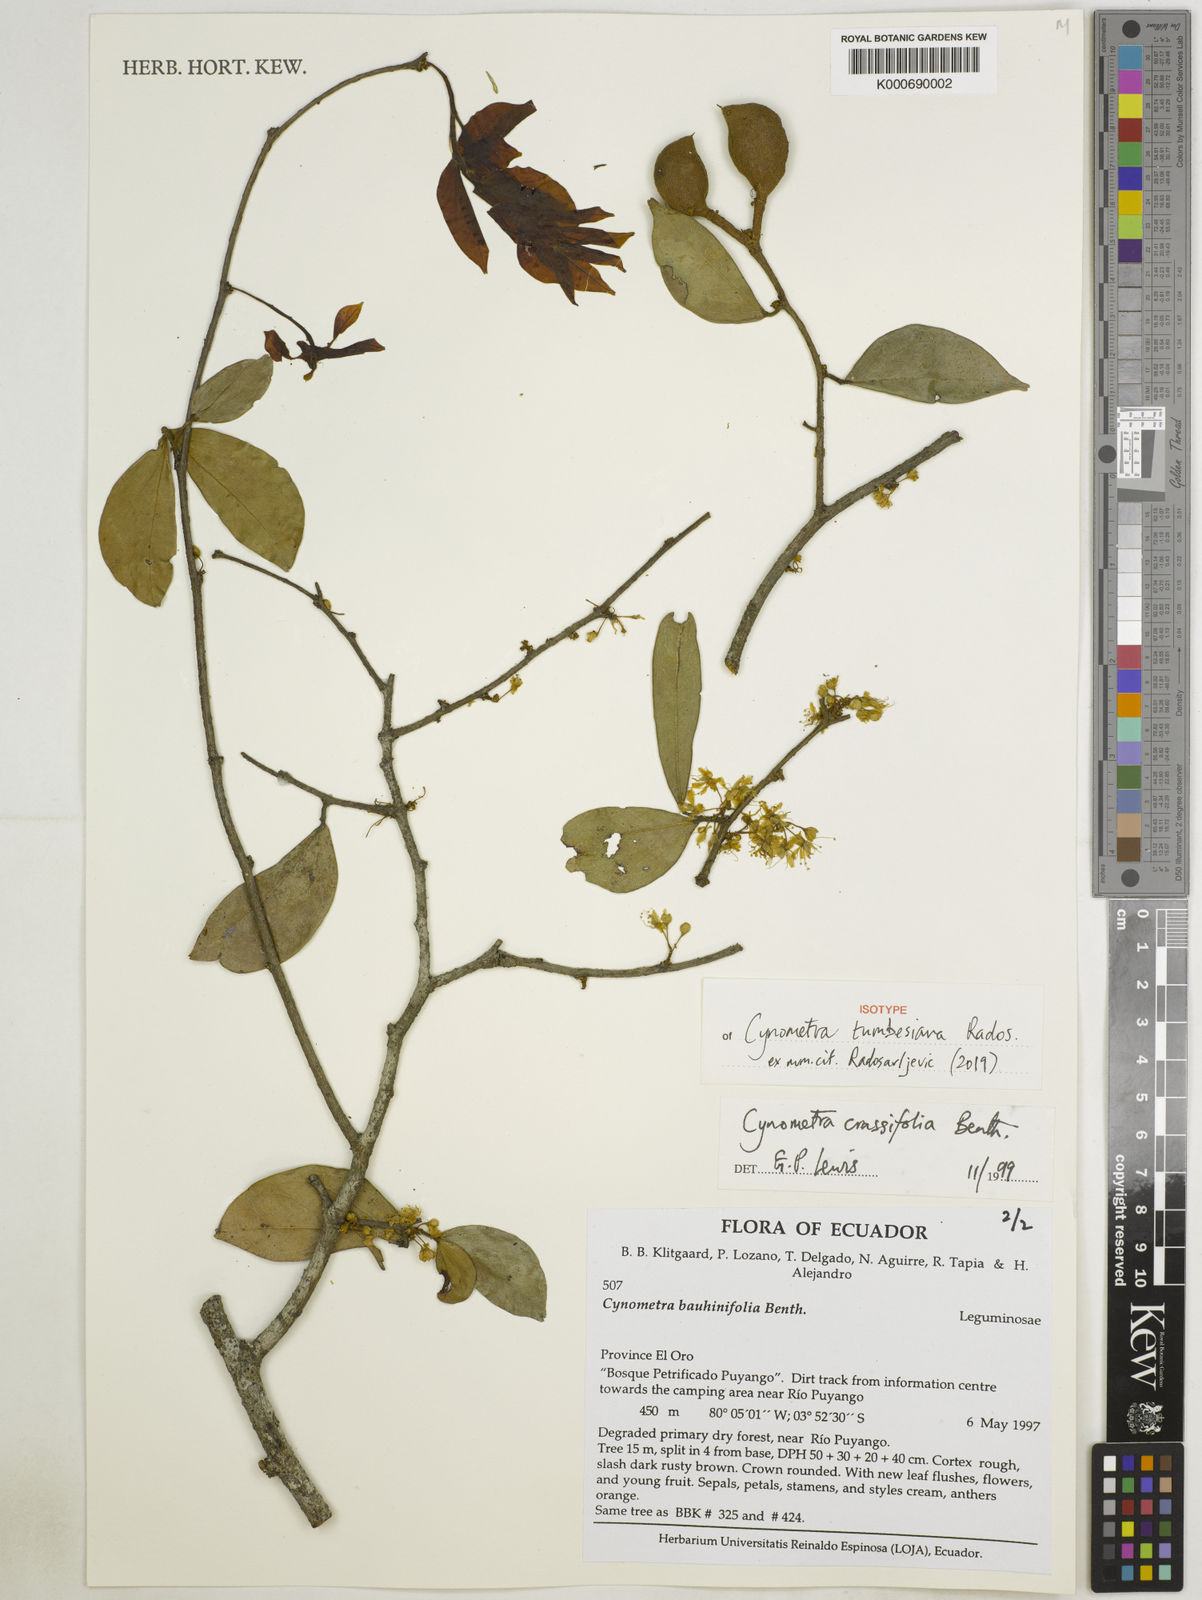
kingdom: Plantae
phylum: Tracheophyta
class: Magnoliopsida
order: Fabales
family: Fabaceae
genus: Cynometra
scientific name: Cynometra crassifolia
